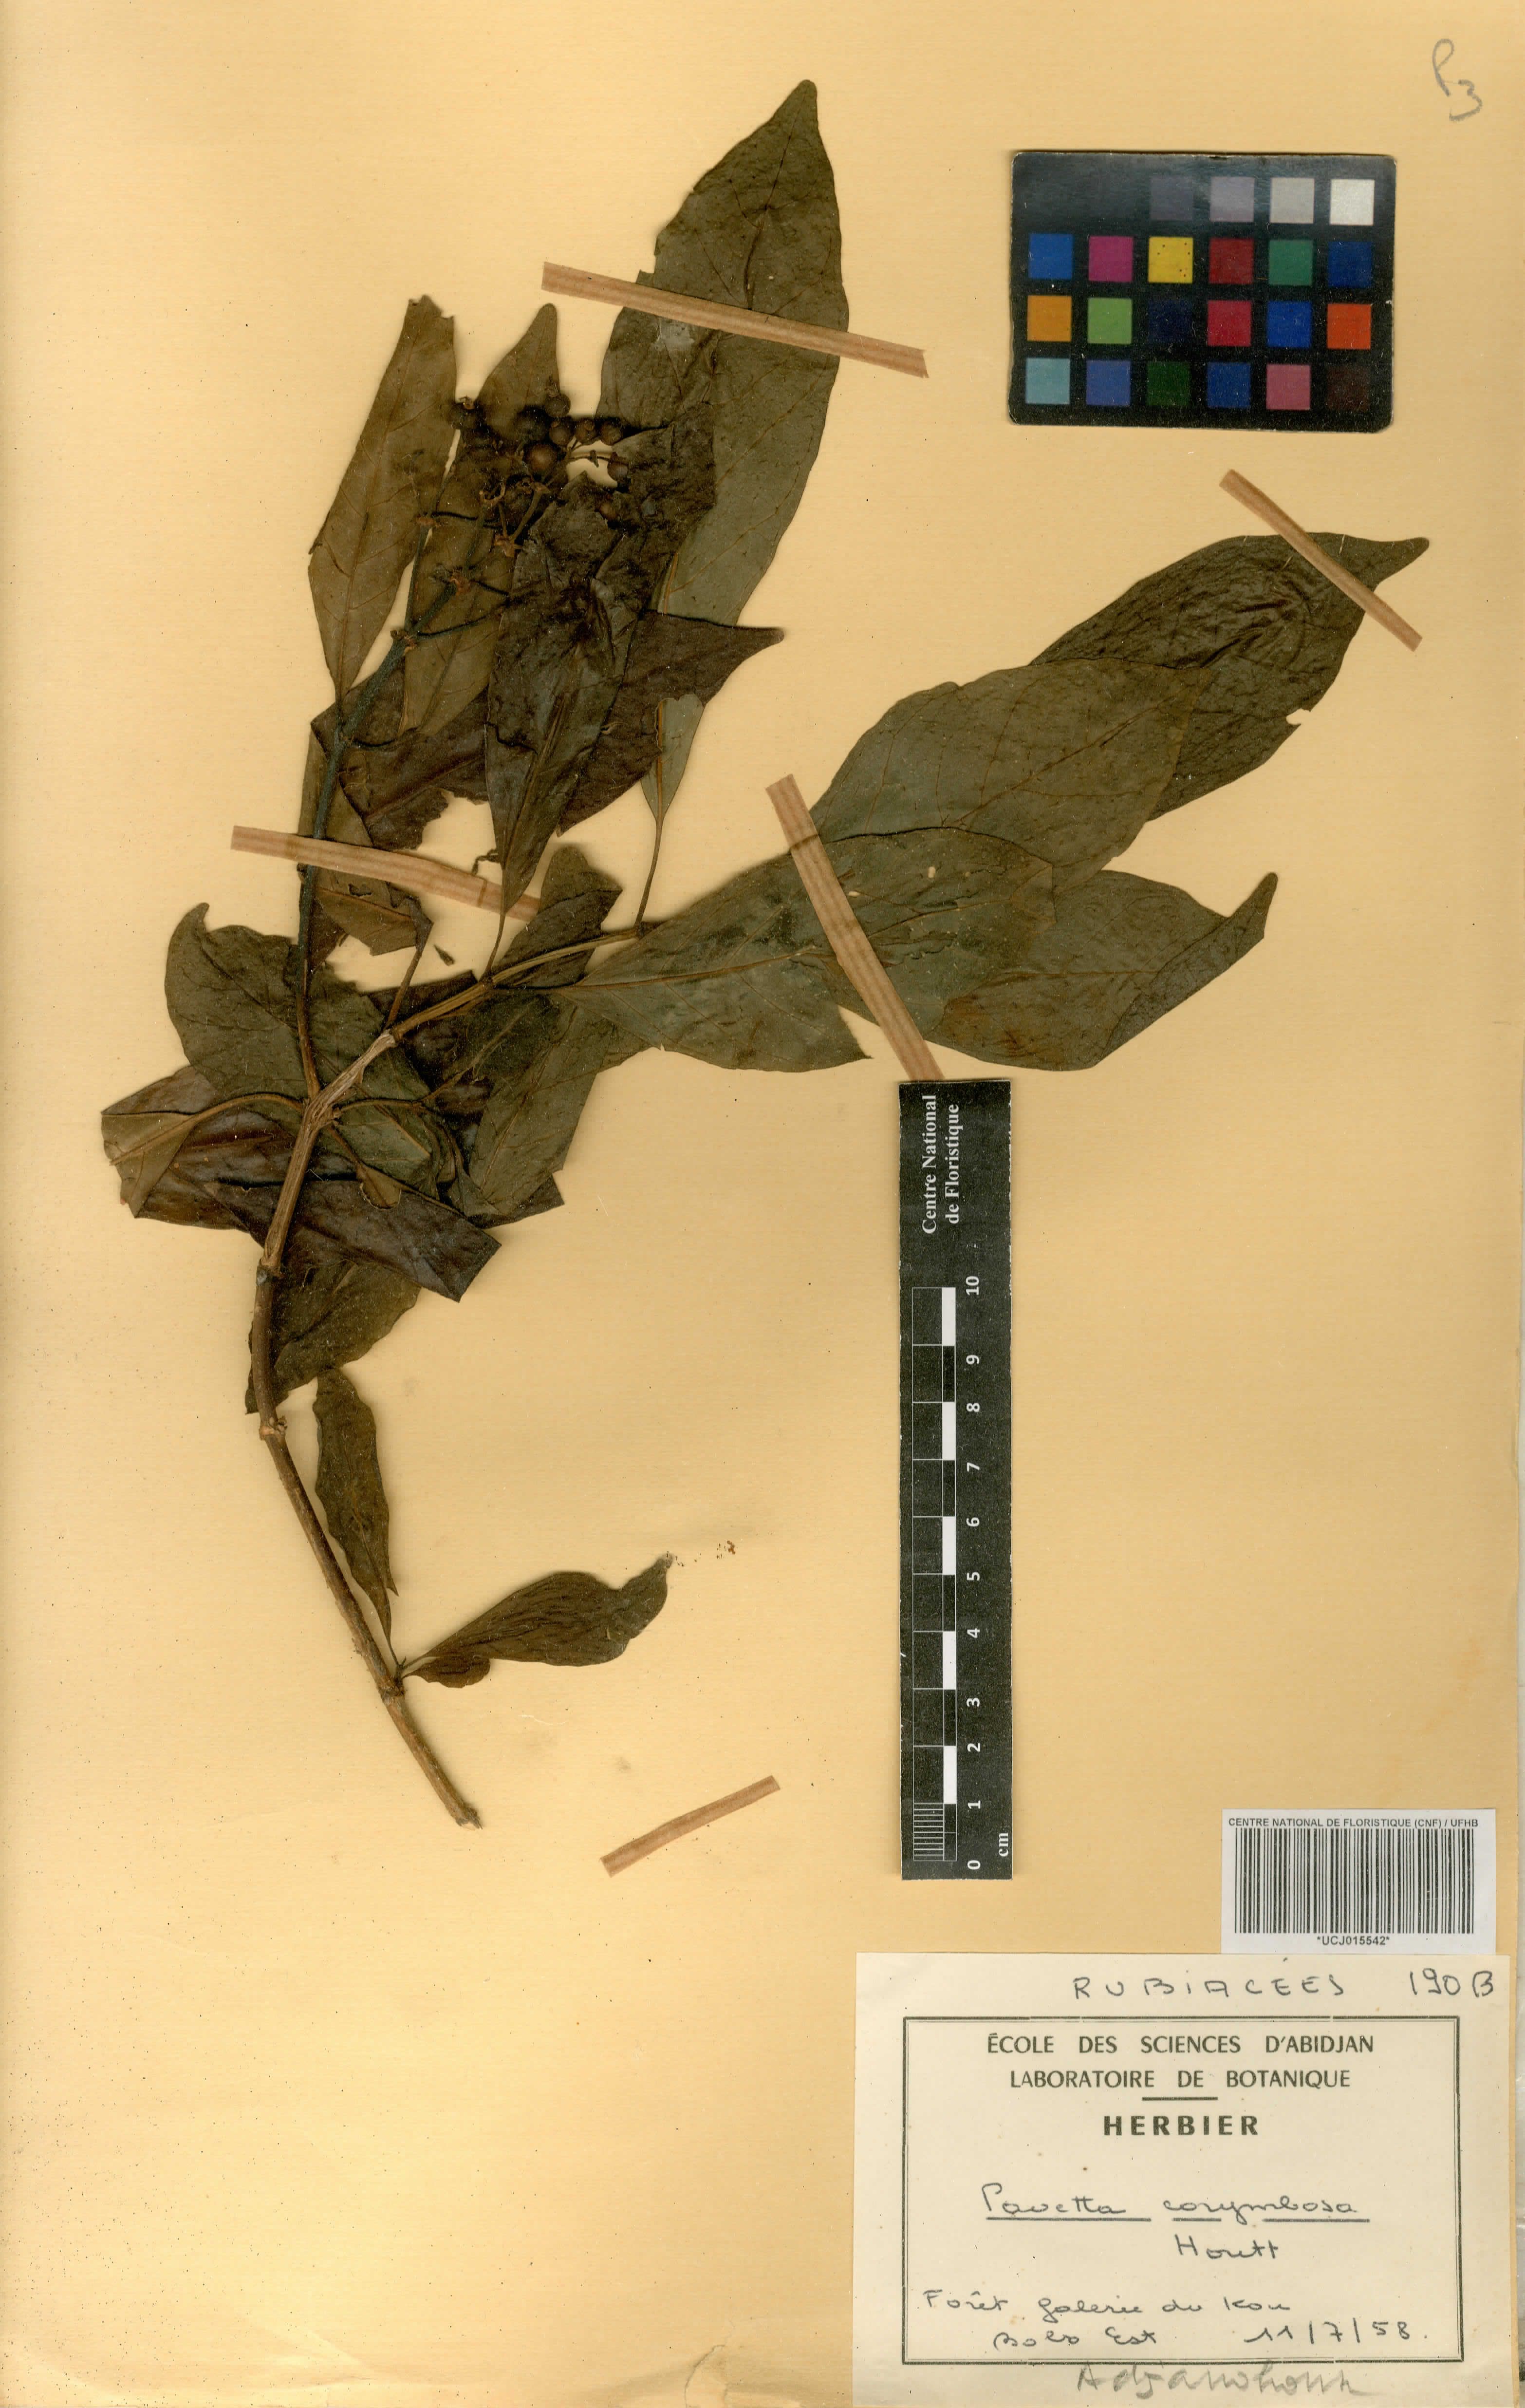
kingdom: Plantae
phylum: Tracheophyta
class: Magnoliopsida
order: Gentianales
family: Rubiaceae
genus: Pavetta
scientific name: Pavetta corymbosa
